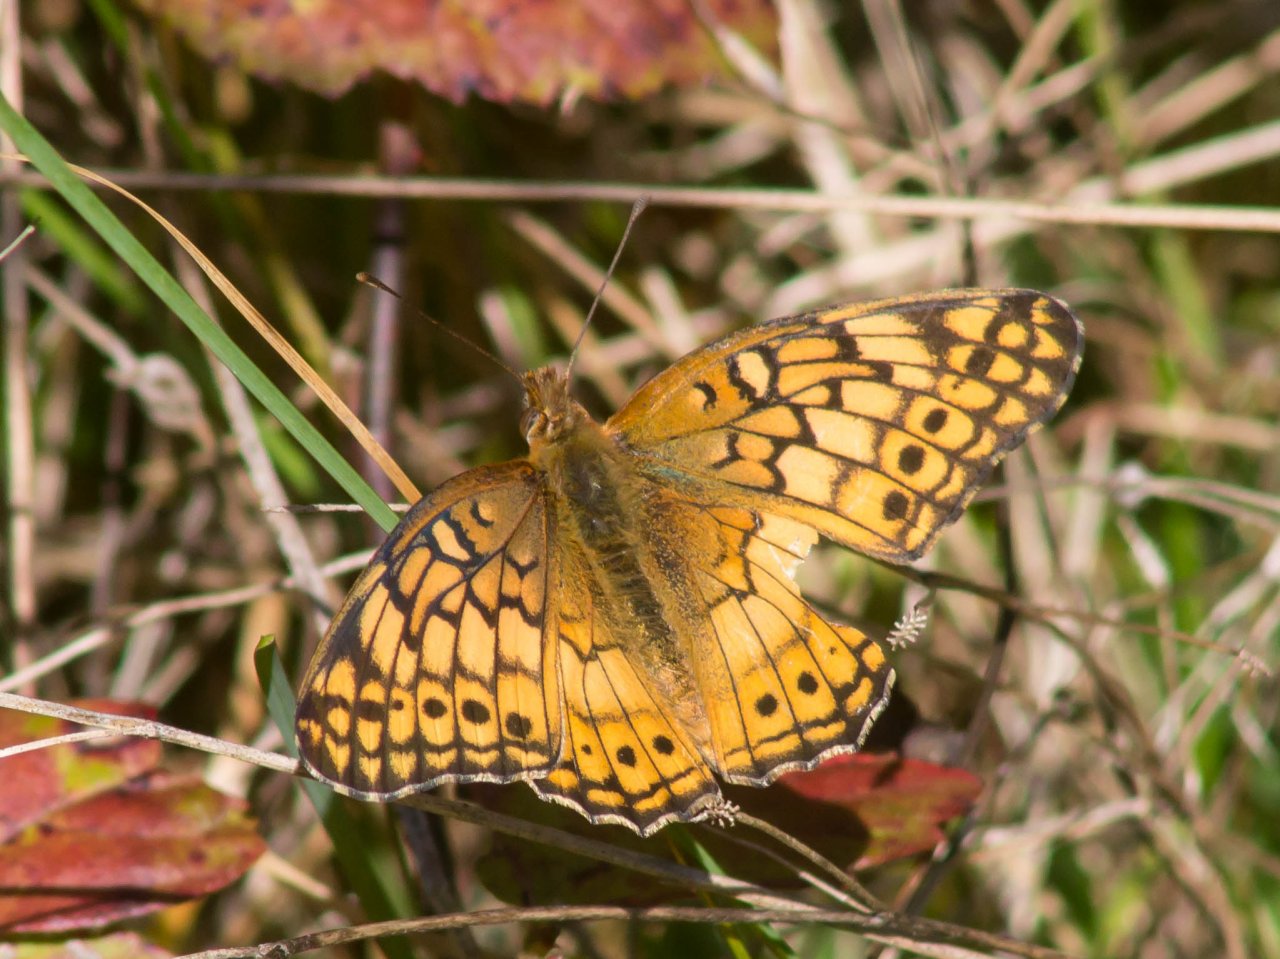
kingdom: Animalia
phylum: Arthropoda
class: Insecta
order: Lepidoptera
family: Nymphalidae
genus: Euptoieta
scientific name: Euptoieta claudia
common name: Variegated Fritillary
